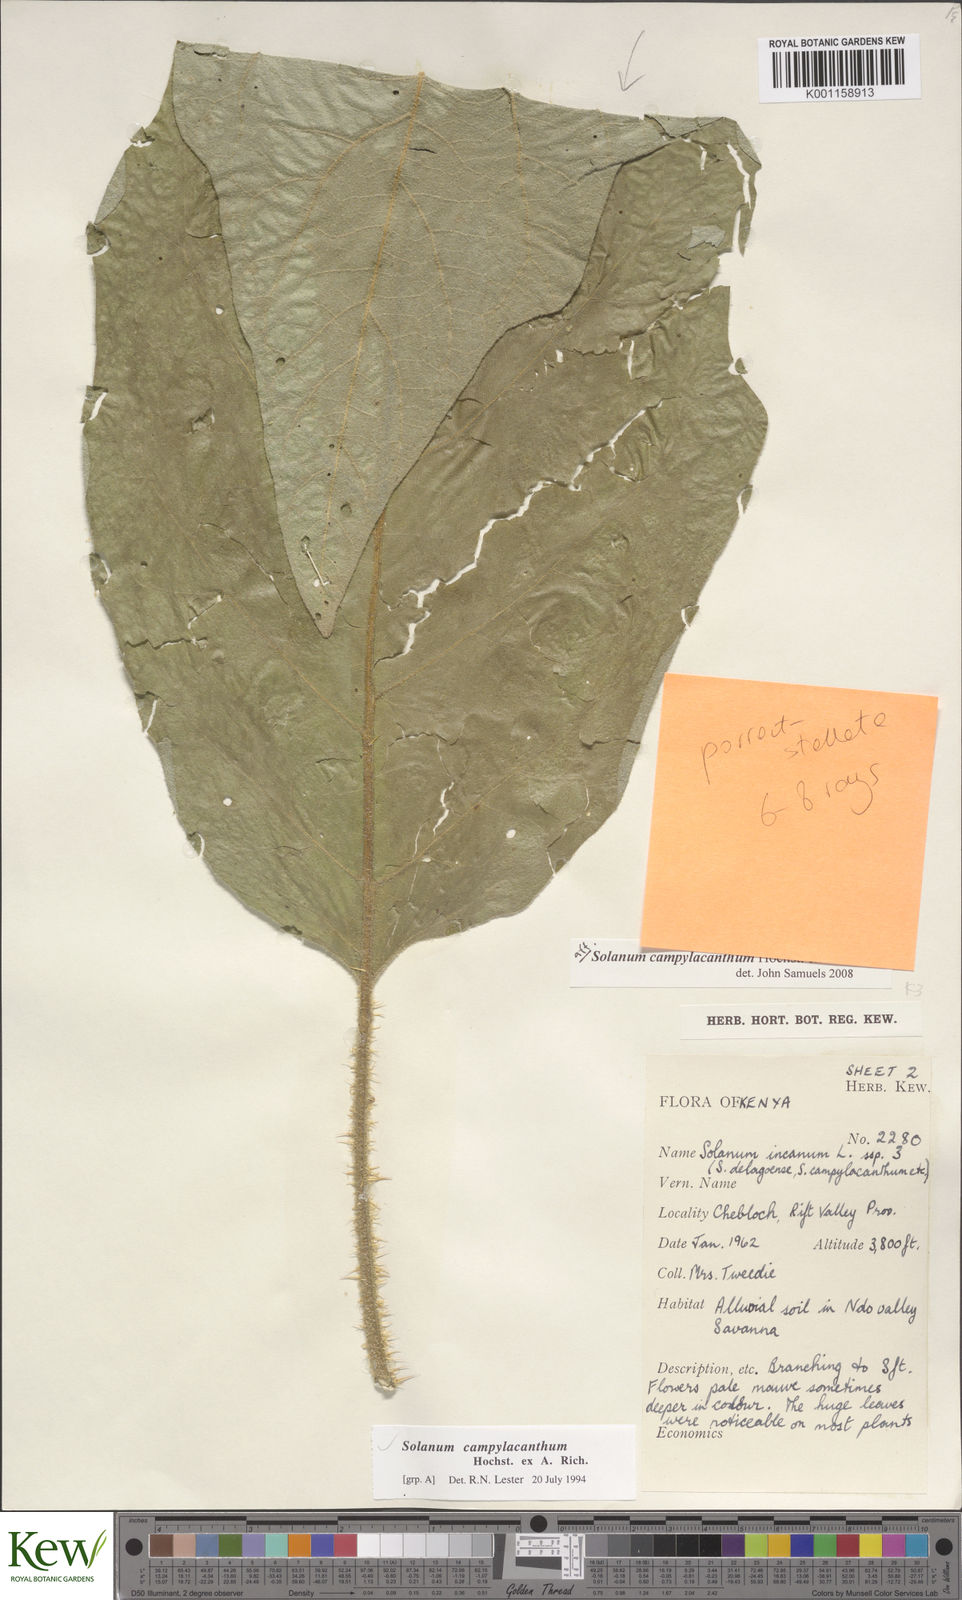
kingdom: Plantae
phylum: Tracheophyta
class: Magnoliopsida
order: Solanales
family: Solanaceae
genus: Solanum
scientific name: Solanum croatii
